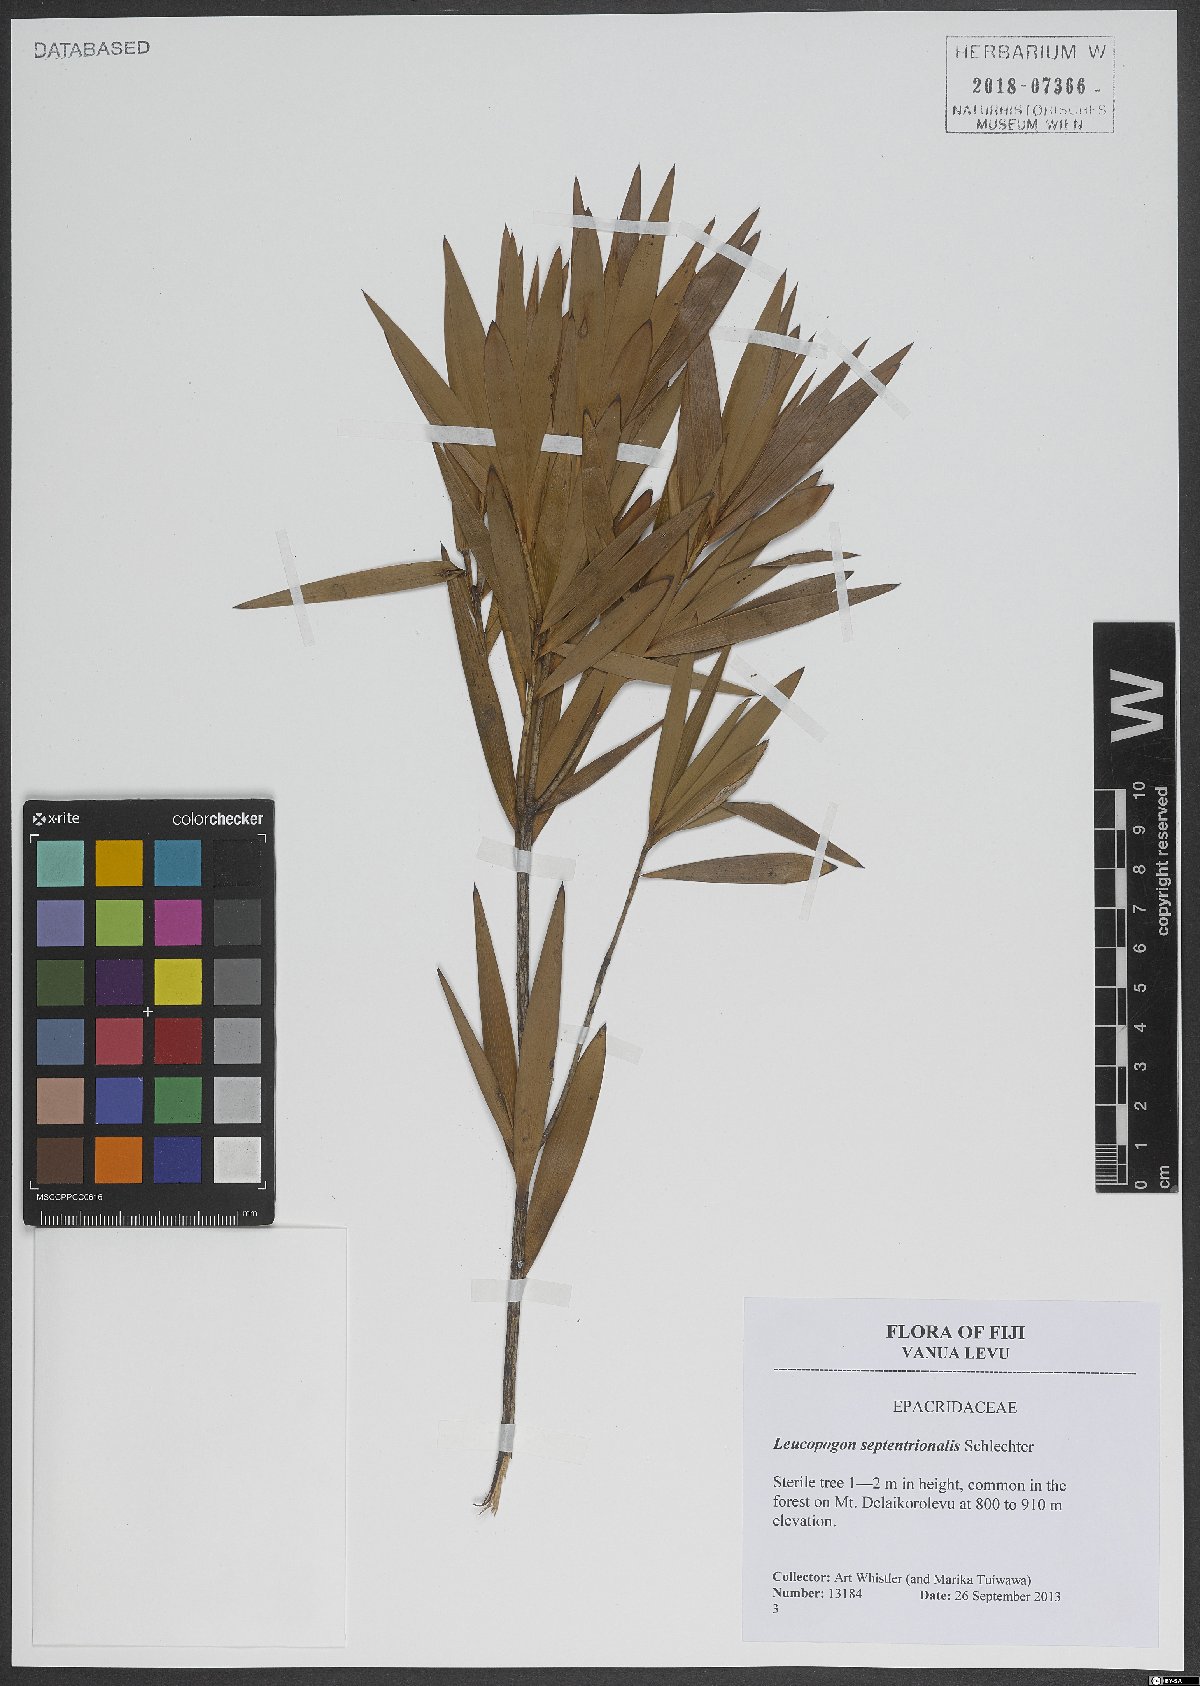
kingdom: Plantae
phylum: Tracheophyta
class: Magnoliopsida
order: Ericales
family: Ericaceae
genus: Styphelia
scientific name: Styphelia cymbulae
